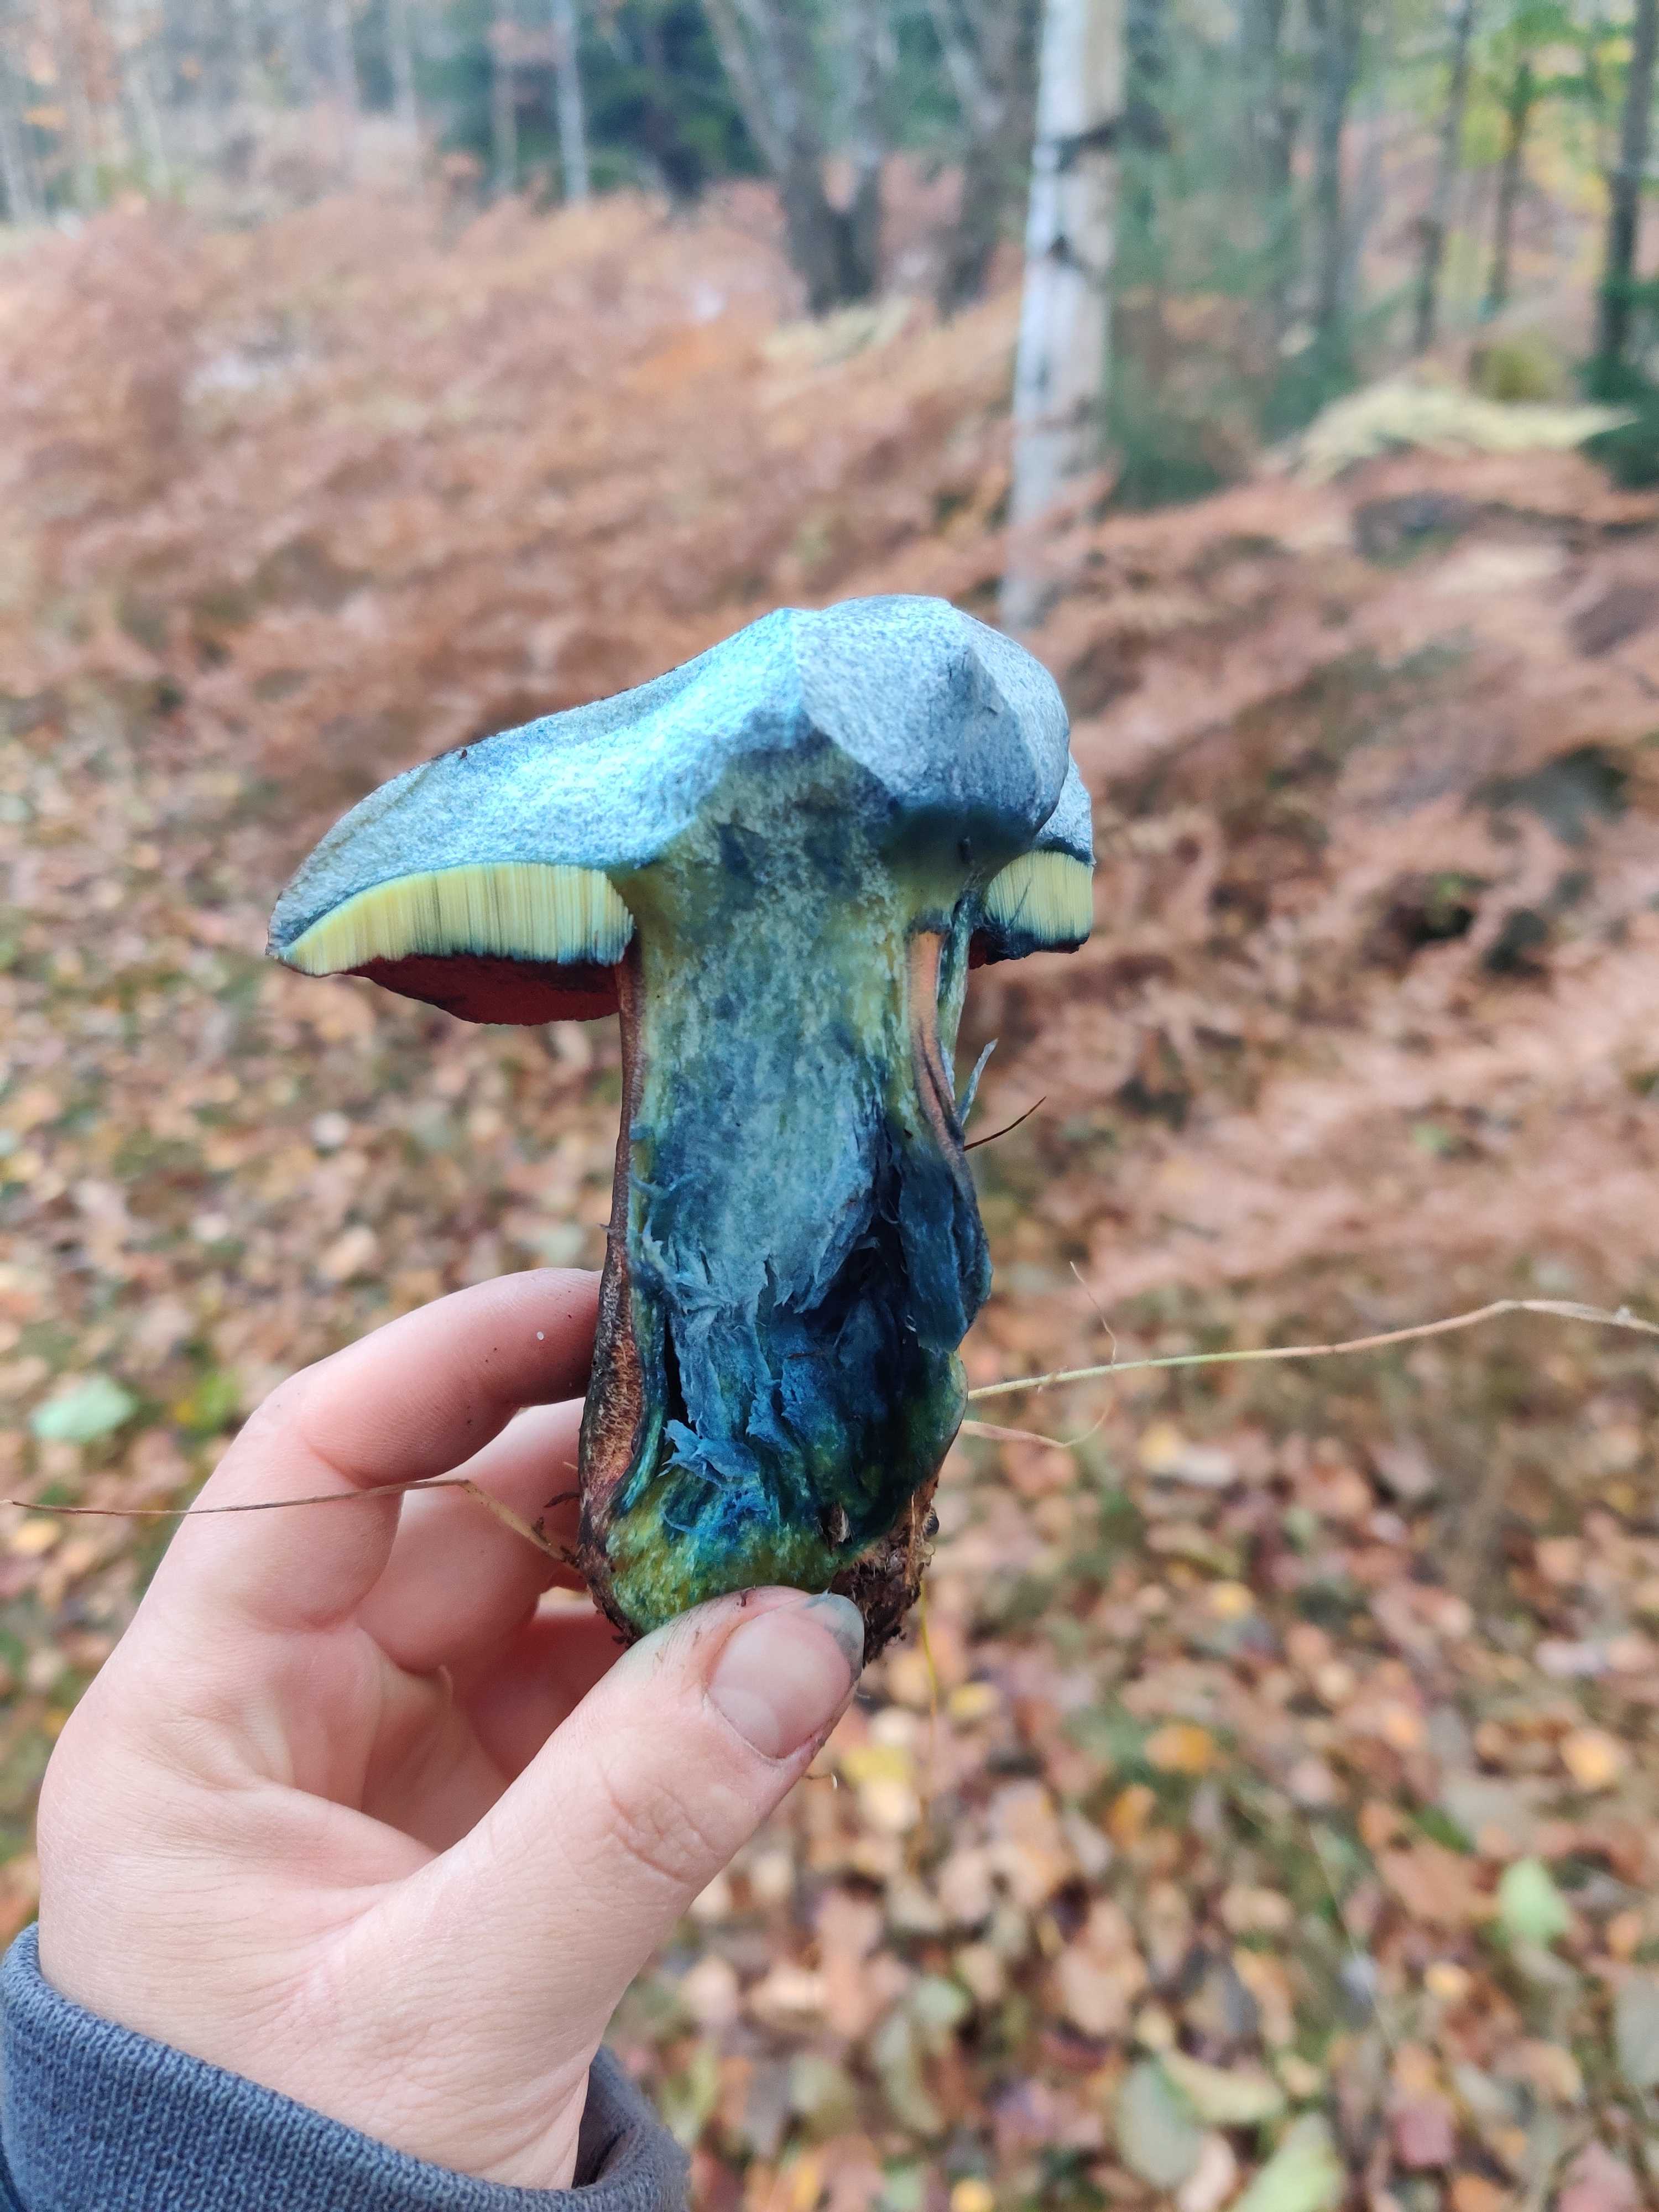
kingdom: Fungi
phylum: Basidiomycota
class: Agaricomycetes
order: Boletales
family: Boletaceae
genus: Neoboletus
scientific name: Neoboletus erythropus
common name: punktstokket indigorørhat
